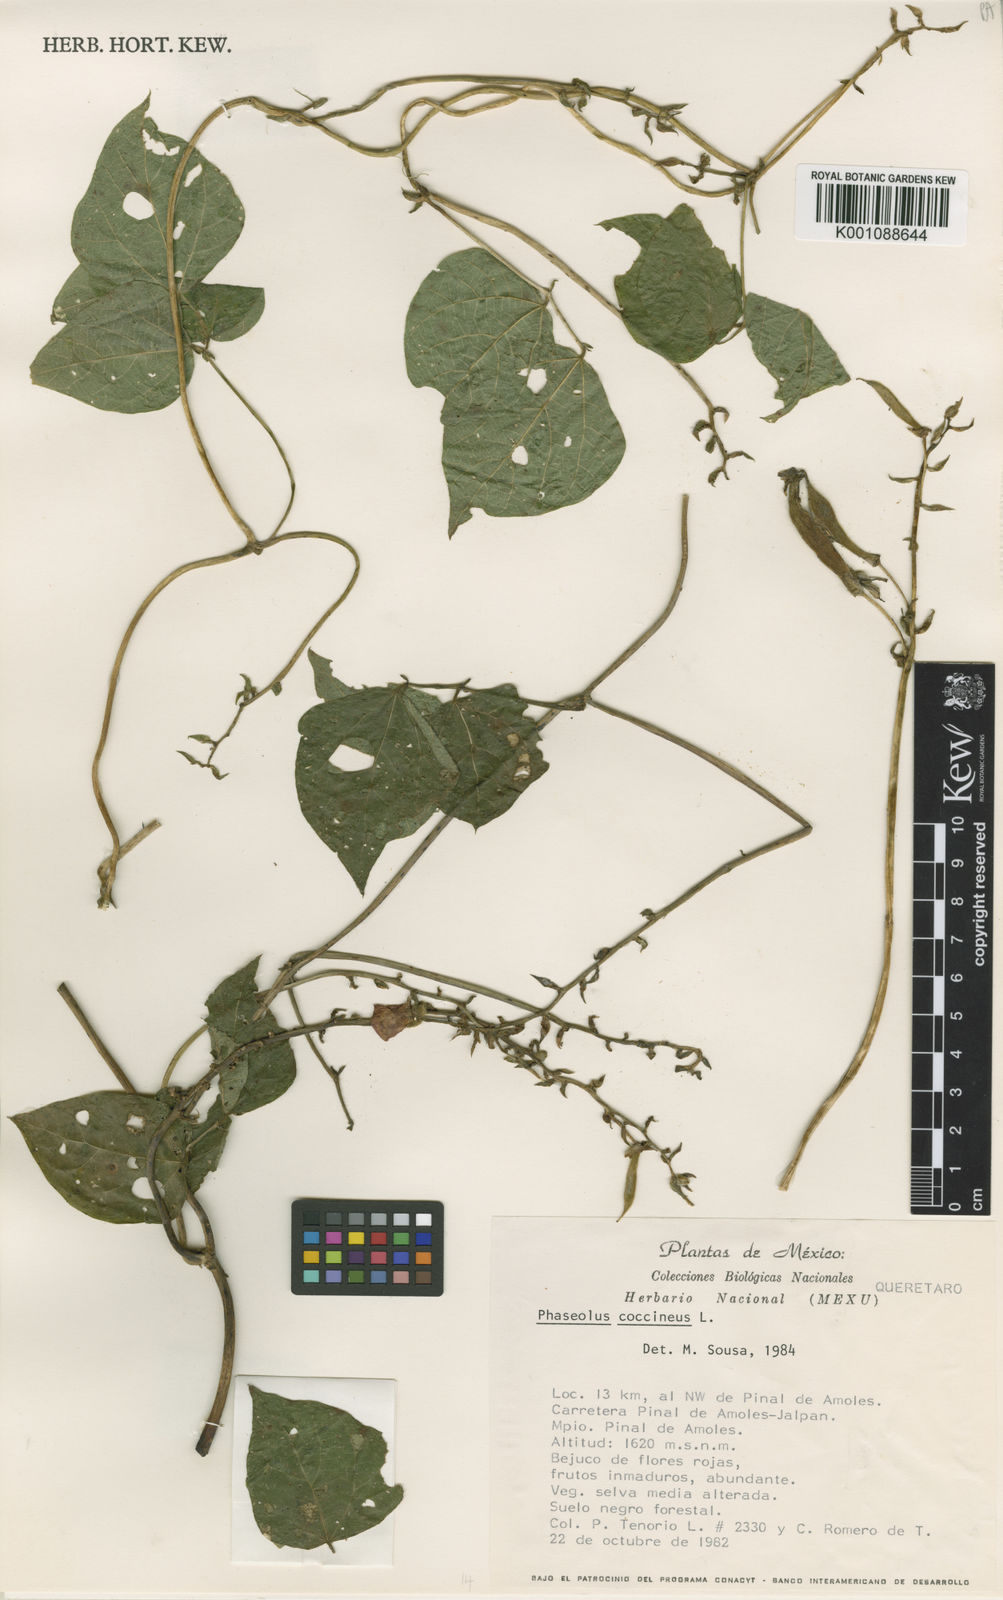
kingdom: Plantae
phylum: Tracheophyta
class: Magnoliopsida
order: Fabales
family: Fabaceae
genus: Phaseolus
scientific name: Phaseolus coccineus
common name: Runner bean
